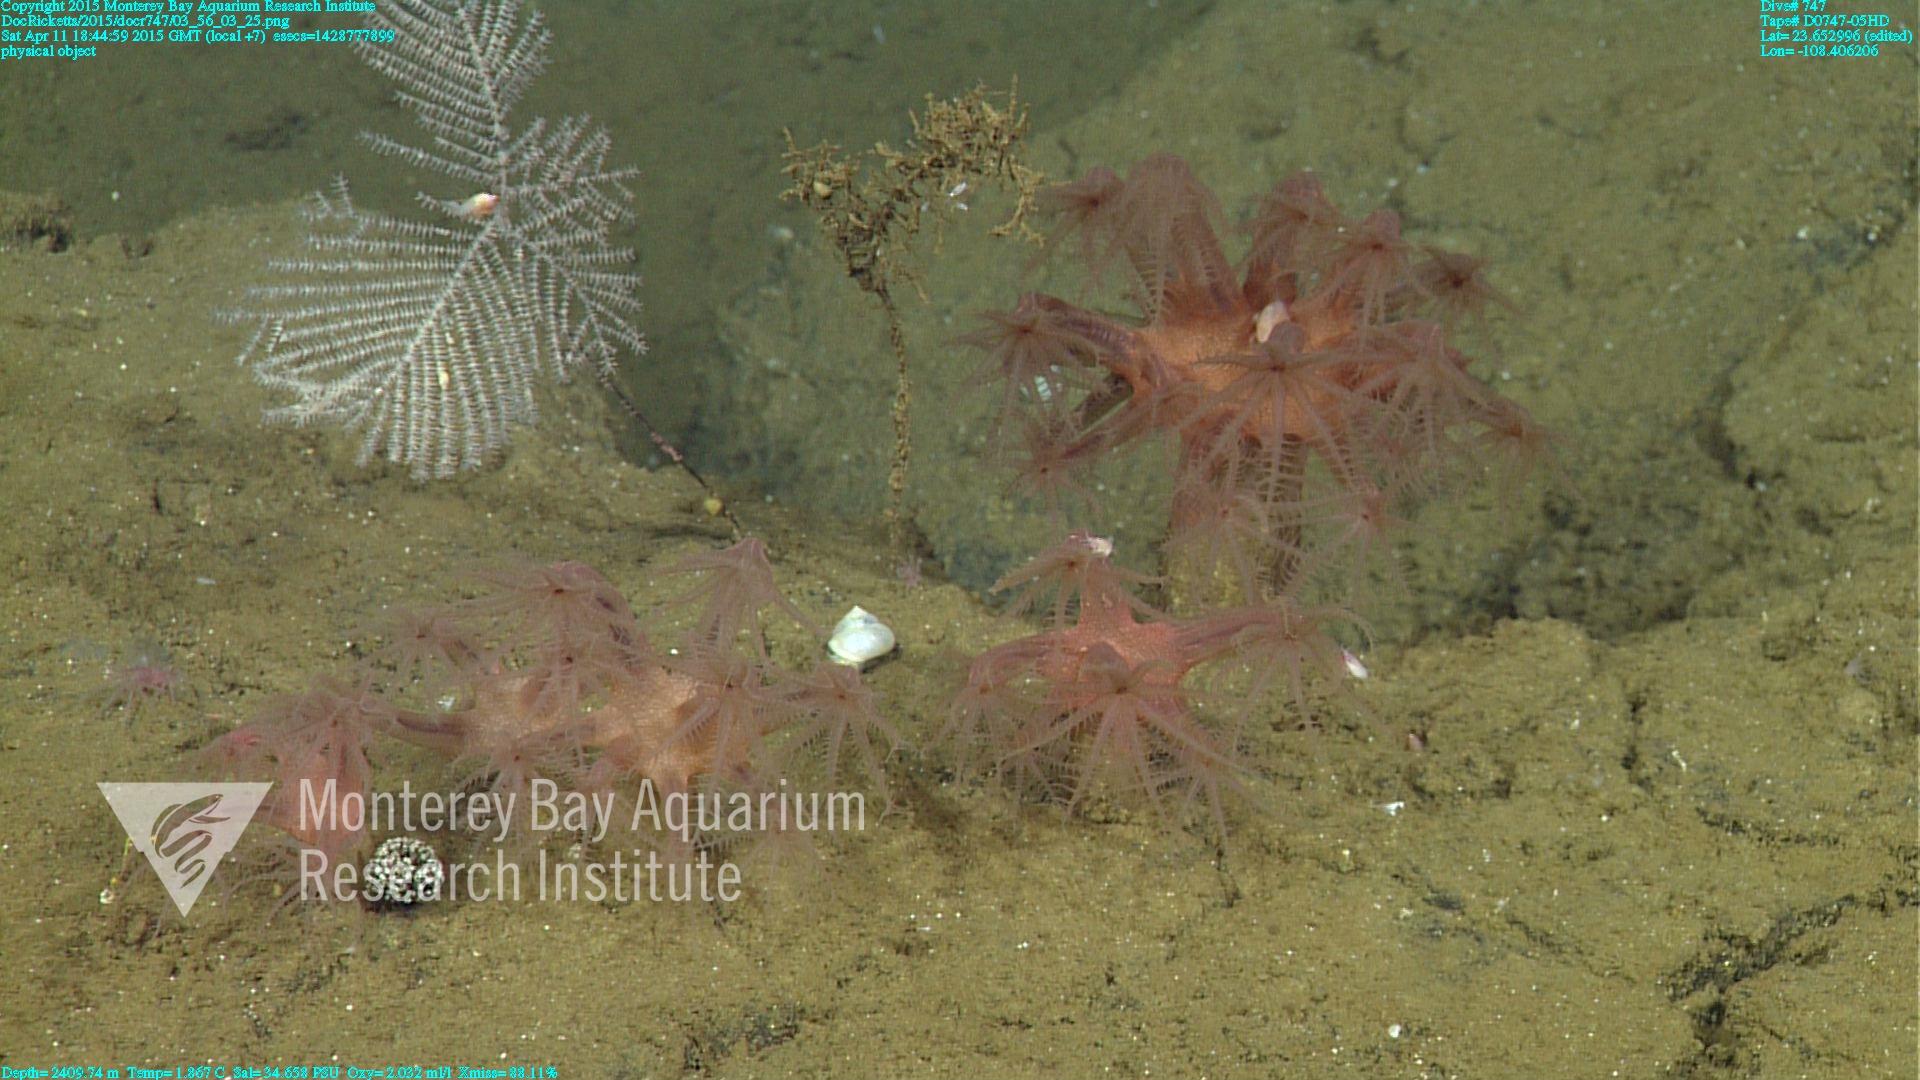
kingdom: Animalia
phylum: Cnidaria
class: Anthozoa
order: Scleralcyonacea
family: Coralliidae
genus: Heteropolypus
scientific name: Heteropolypus ritteri
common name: Ritter's soft coral
